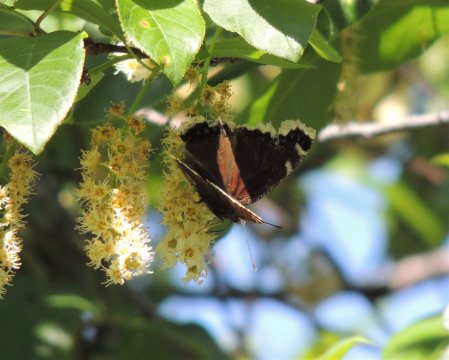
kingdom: Animalia
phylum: Arthropoda
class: Insecta
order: Lepidoptera
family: Nymphalidae
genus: Nymphalis
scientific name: Nymphalis antiopa
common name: Mourning Cloak
